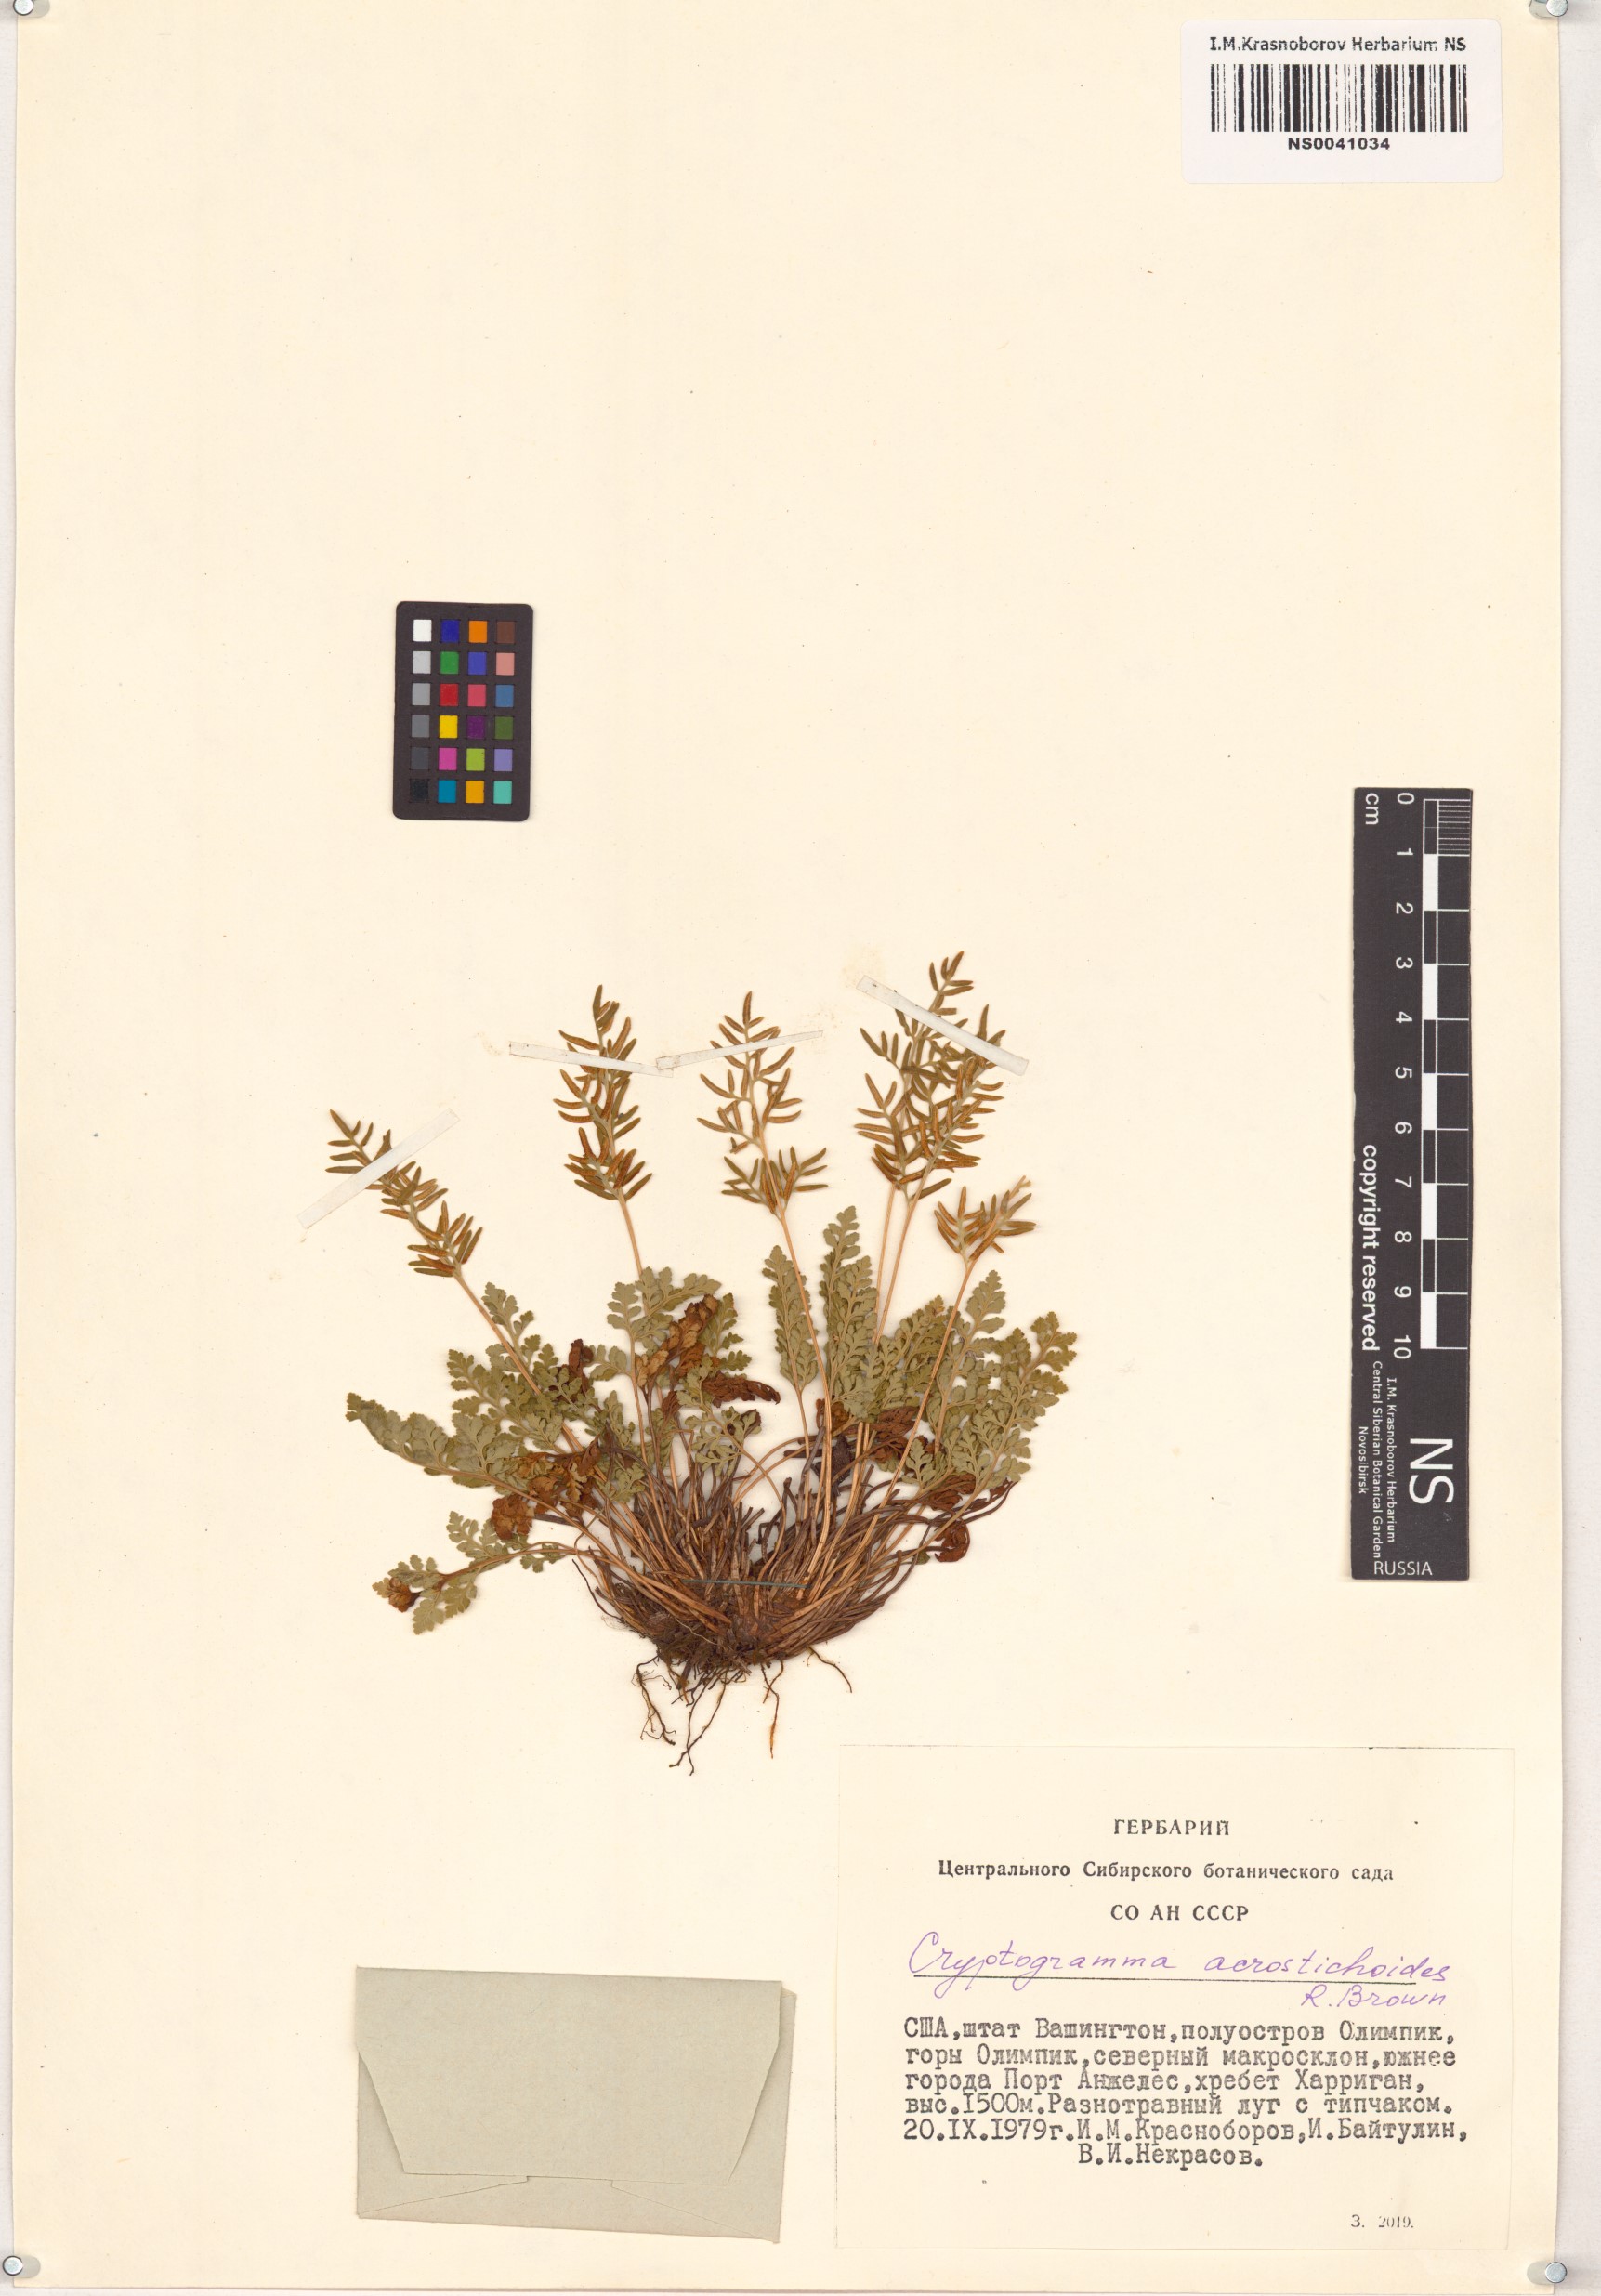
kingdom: Plantae
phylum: Tracheophyta
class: Polypodiopsida
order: Polypodiales
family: Pteridaceae
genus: Cryptogramma
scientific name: Cryptogramma acrostichoides
